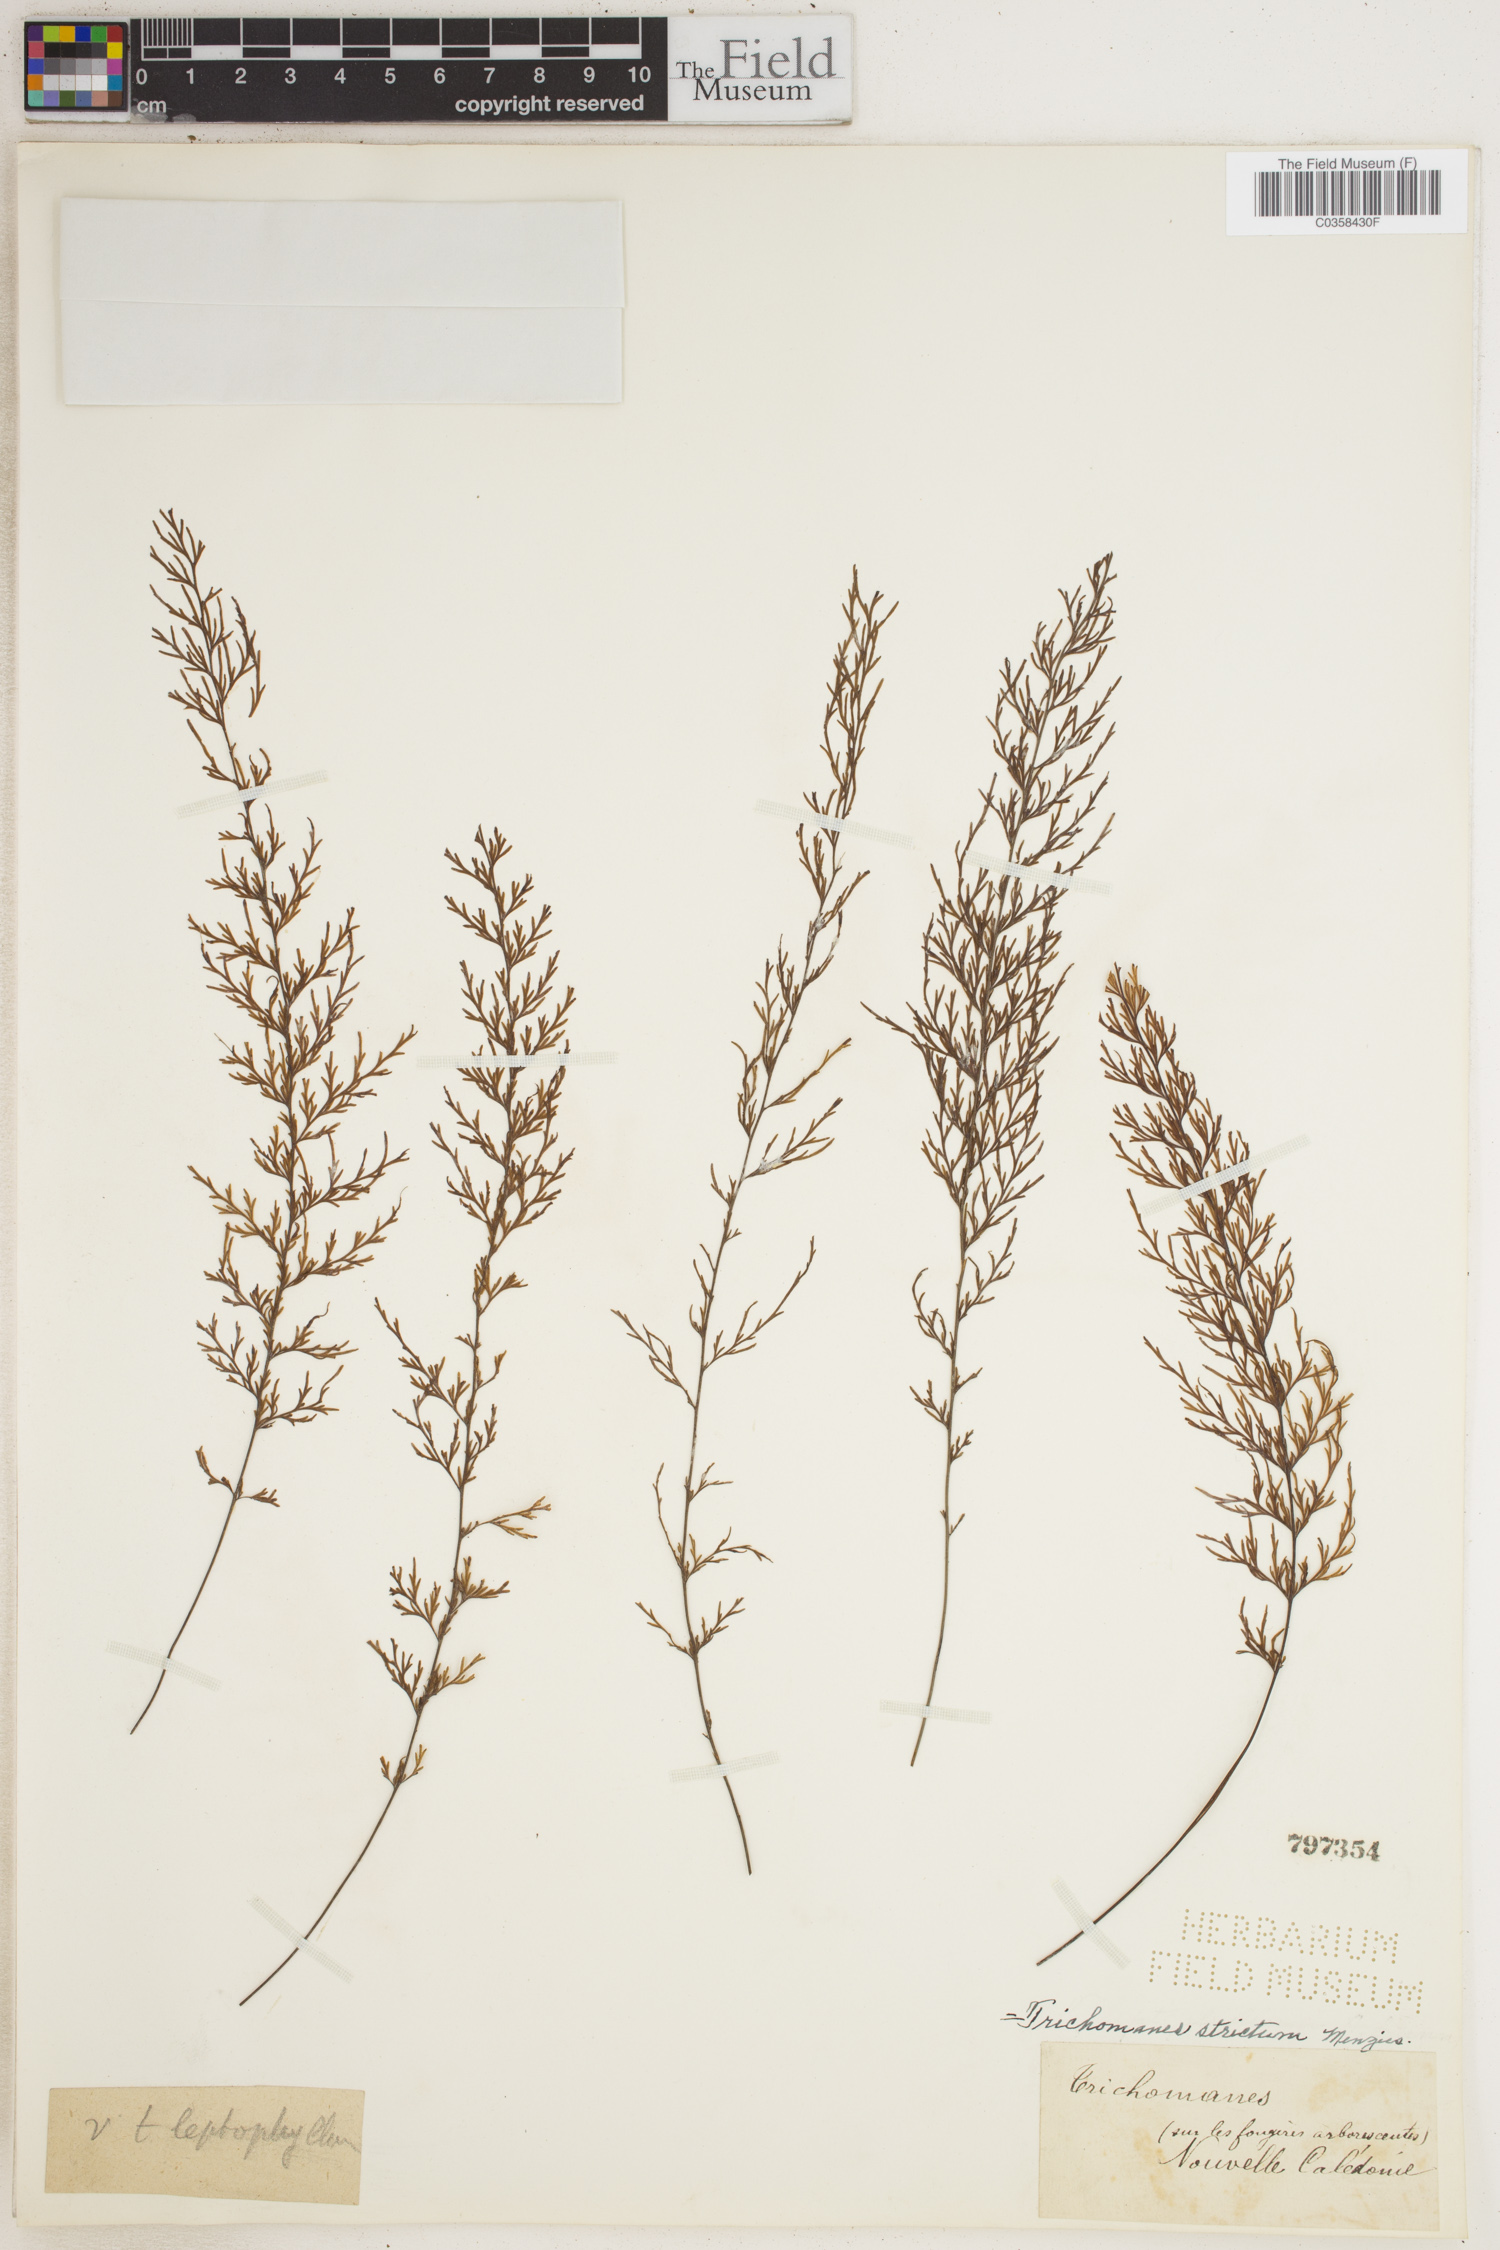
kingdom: Plantae
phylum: Tracheophyta
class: Polypodiopsida
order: Hymenophyllales
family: Hymenophyllaceae
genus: Trichomanes
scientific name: Trichomanes strictum
